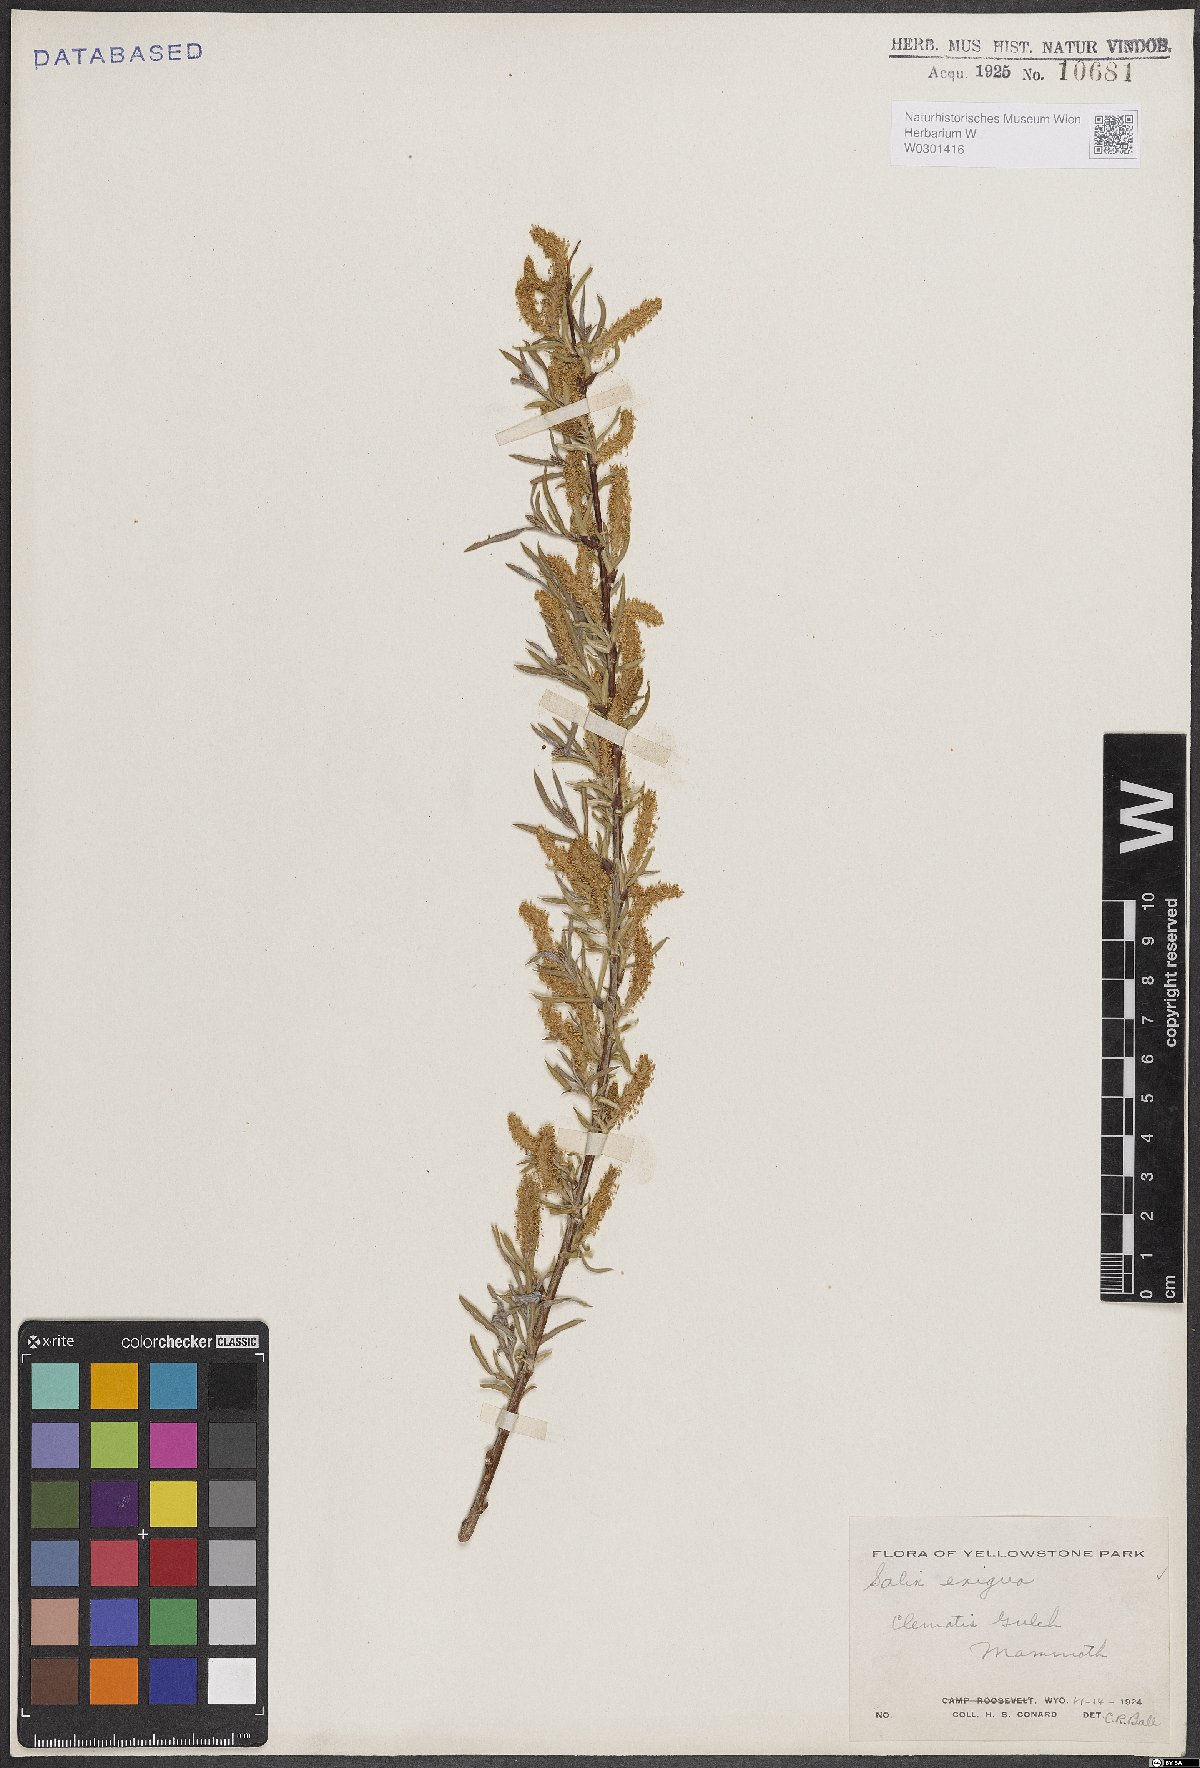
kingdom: Plantae
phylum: Tracheophyta
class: Magnoliopsida
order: Malpighiales
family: Salicaceae
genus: Salix
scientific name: Salix exigua
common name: Coyote willow
